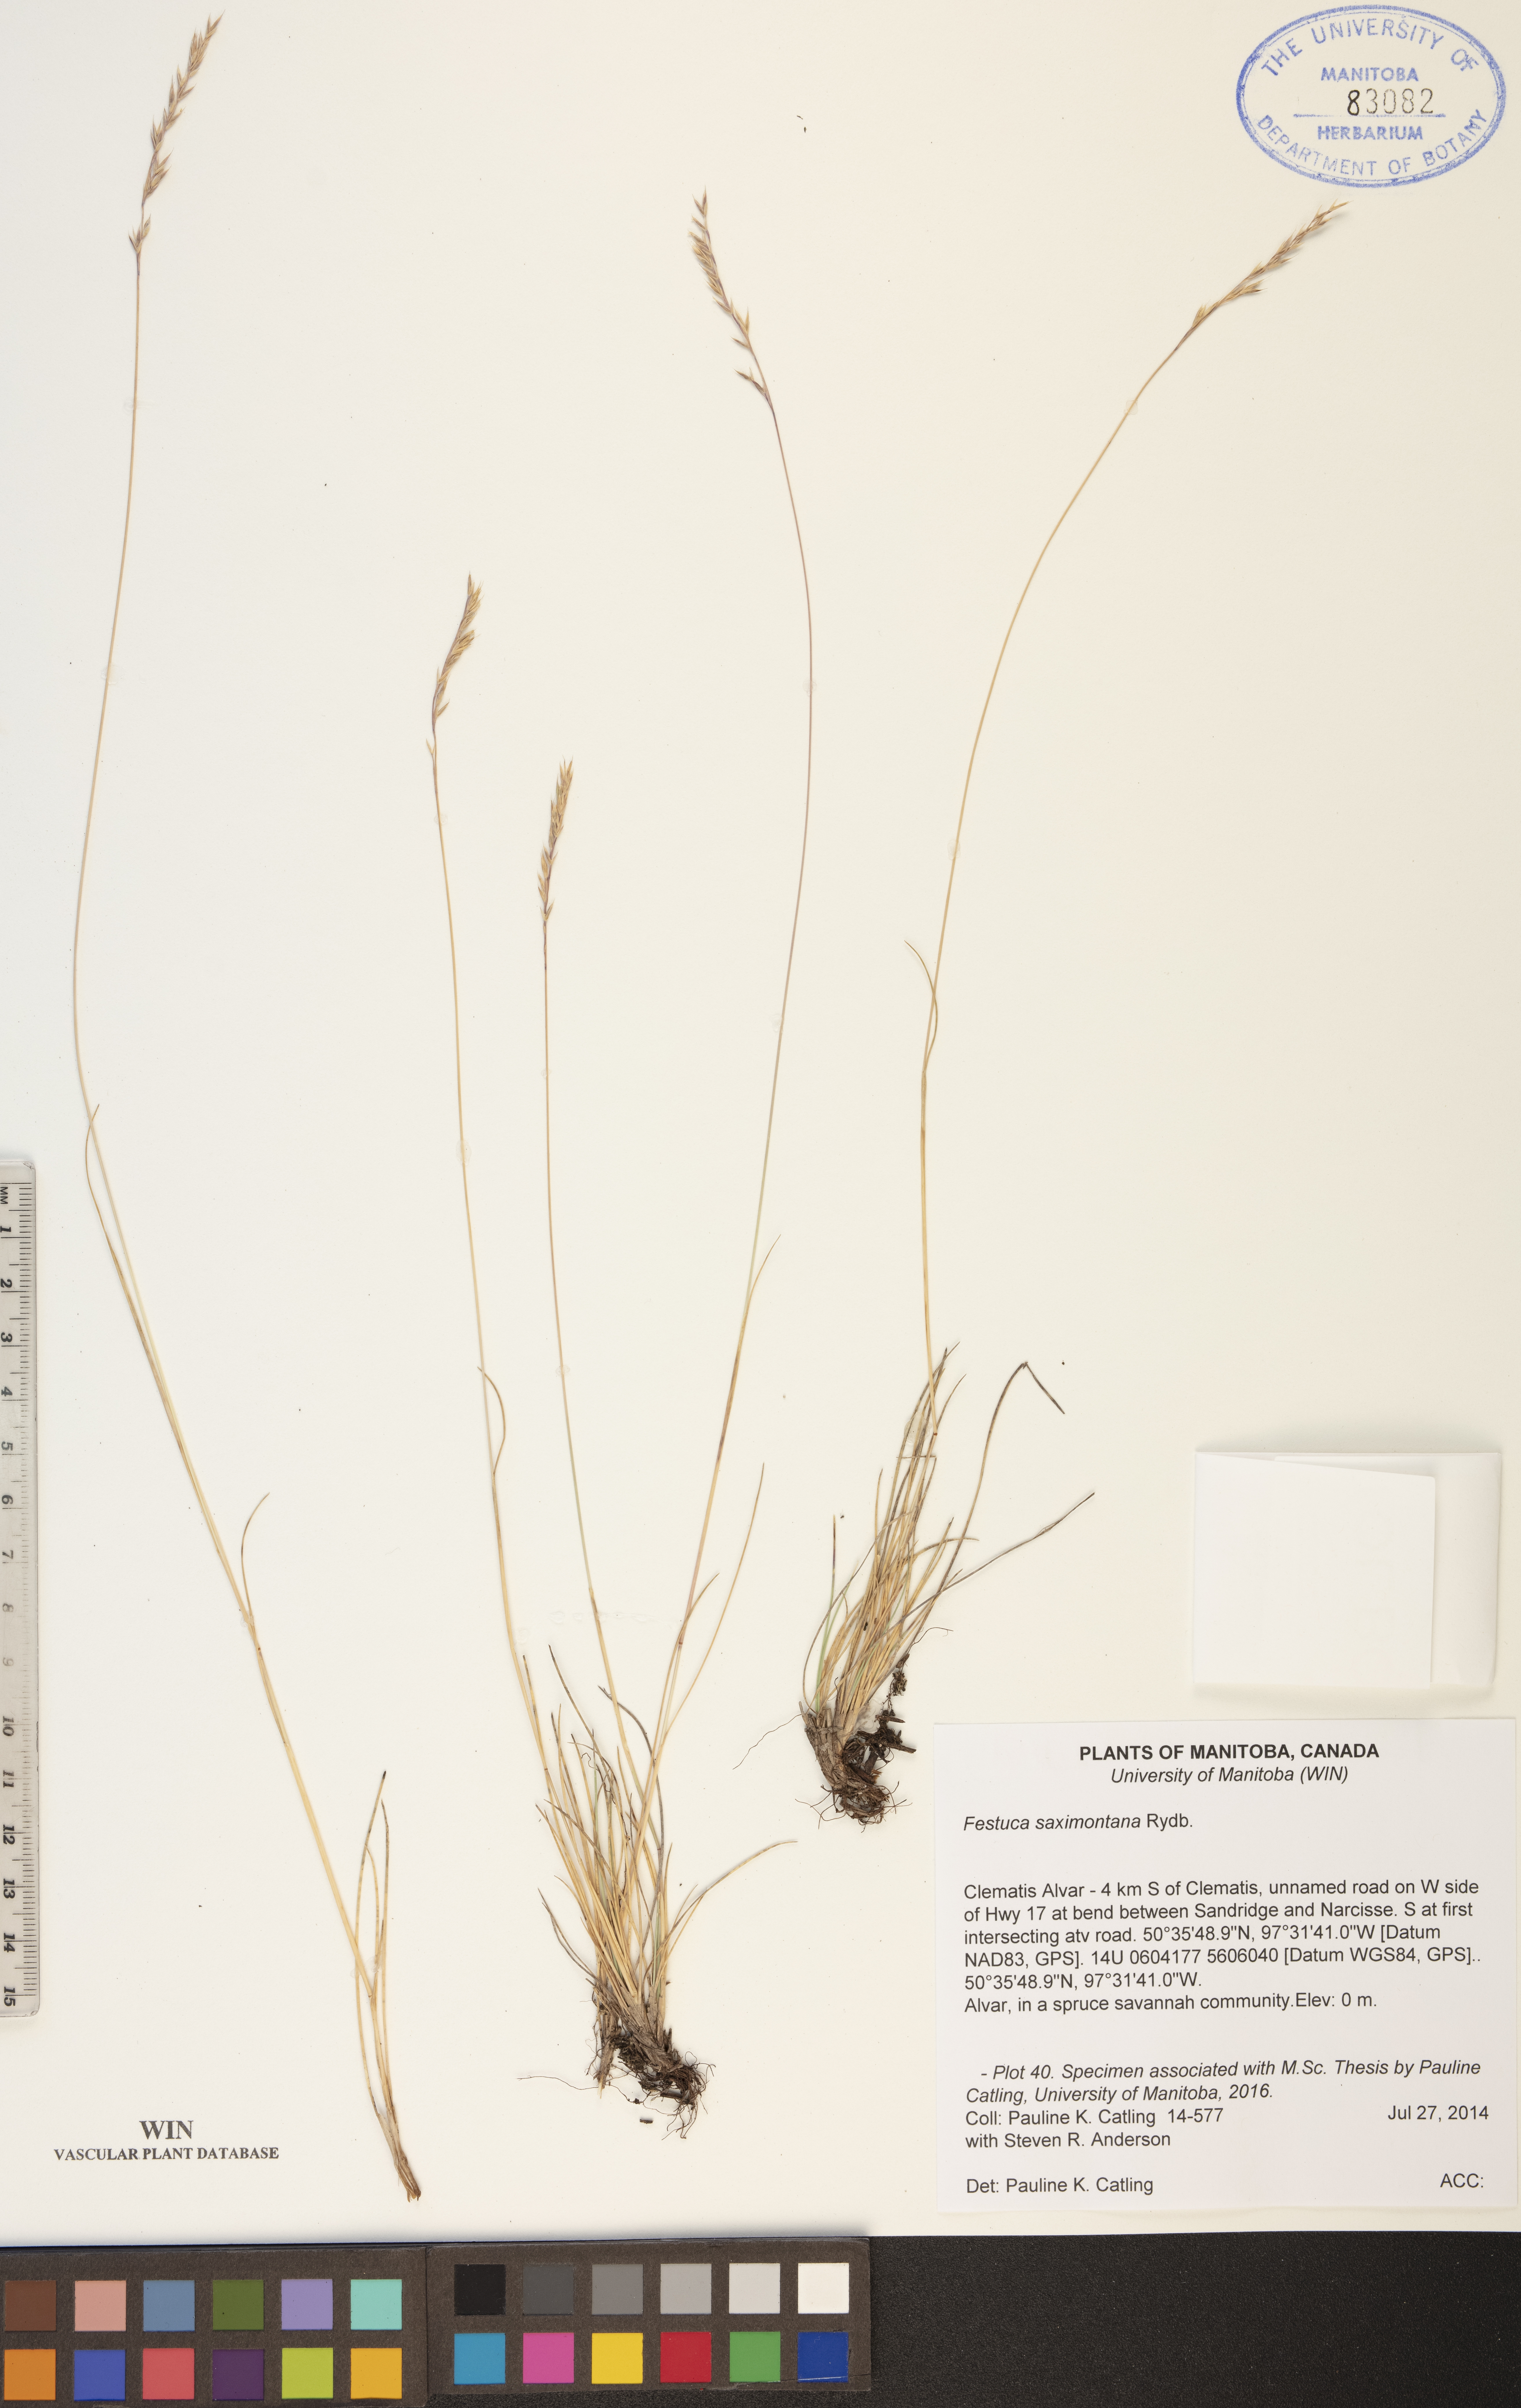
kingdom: Plantae
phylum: Tracheophyta
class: Liliopsida
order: Poales
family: Poaceae
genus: Festuca
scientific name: Festuca saximontana
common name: Mountain fescue
